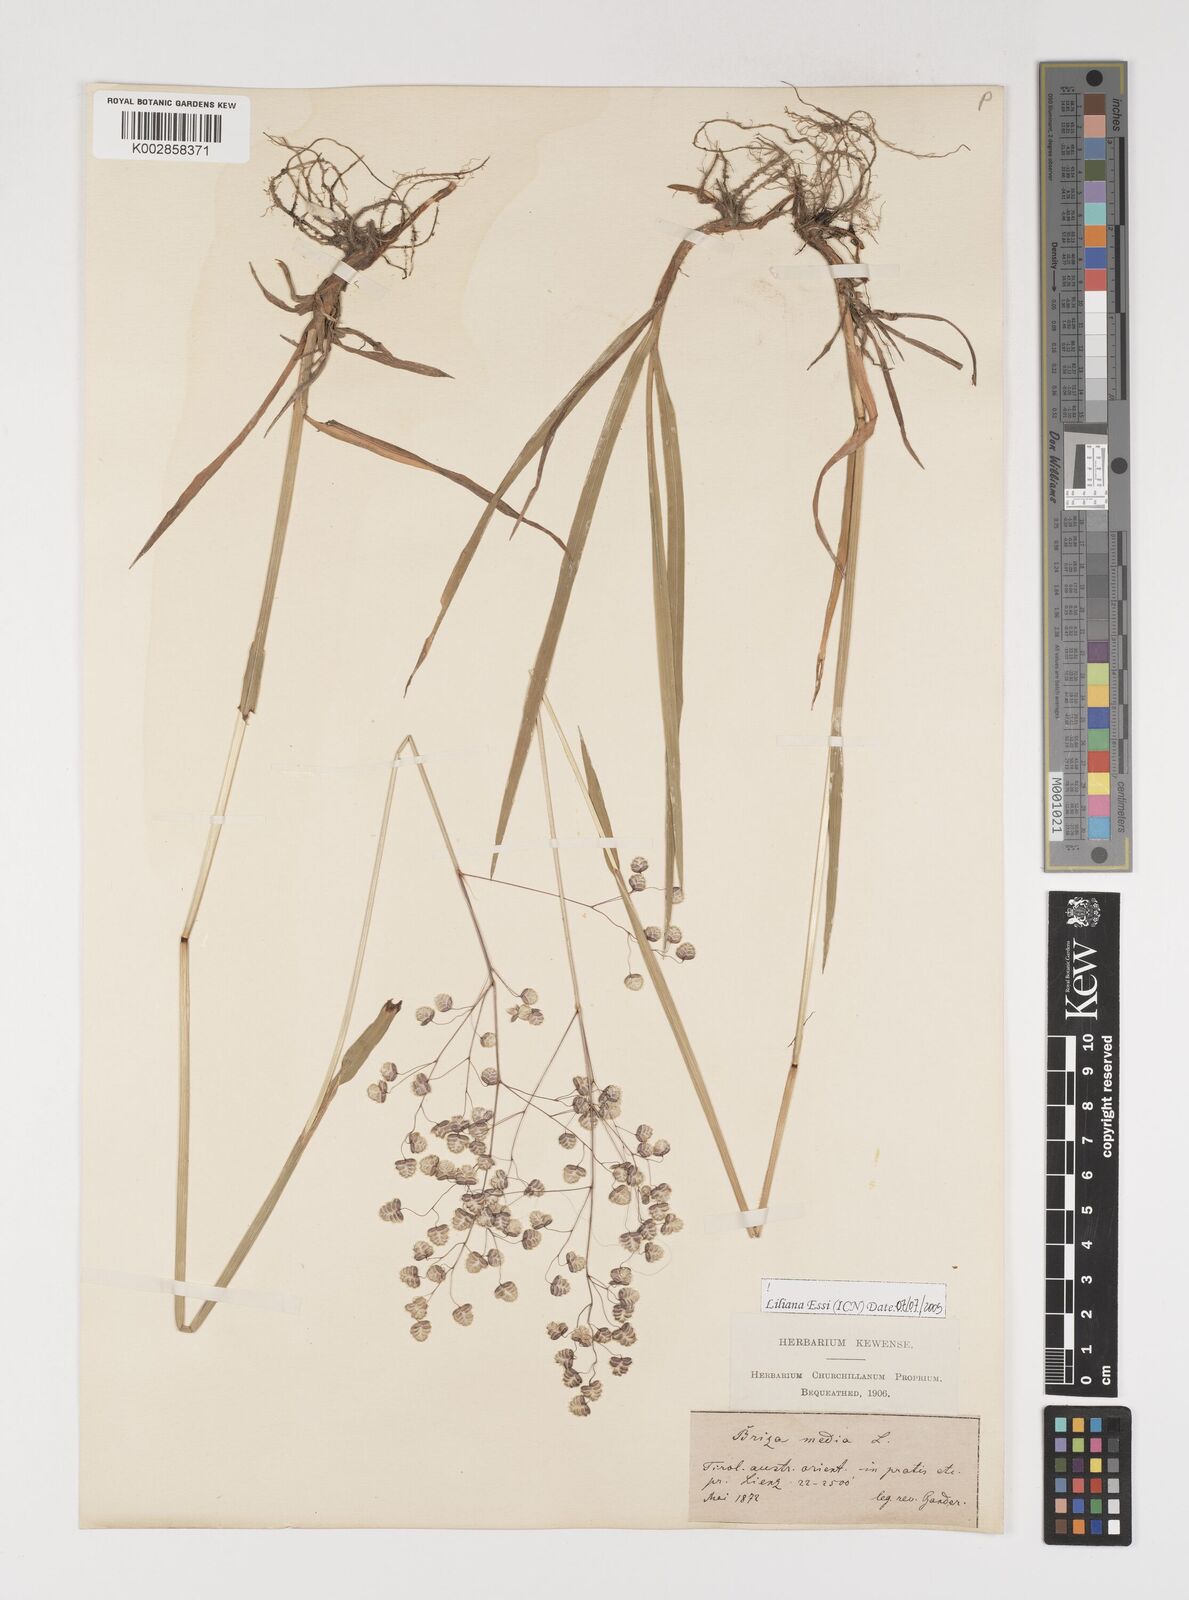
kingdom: Plantae
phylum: Tracheophyta
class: Liliopsida
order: Poales
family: Poaceae
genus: Briza
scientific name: Briza media
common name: Quaking grass
